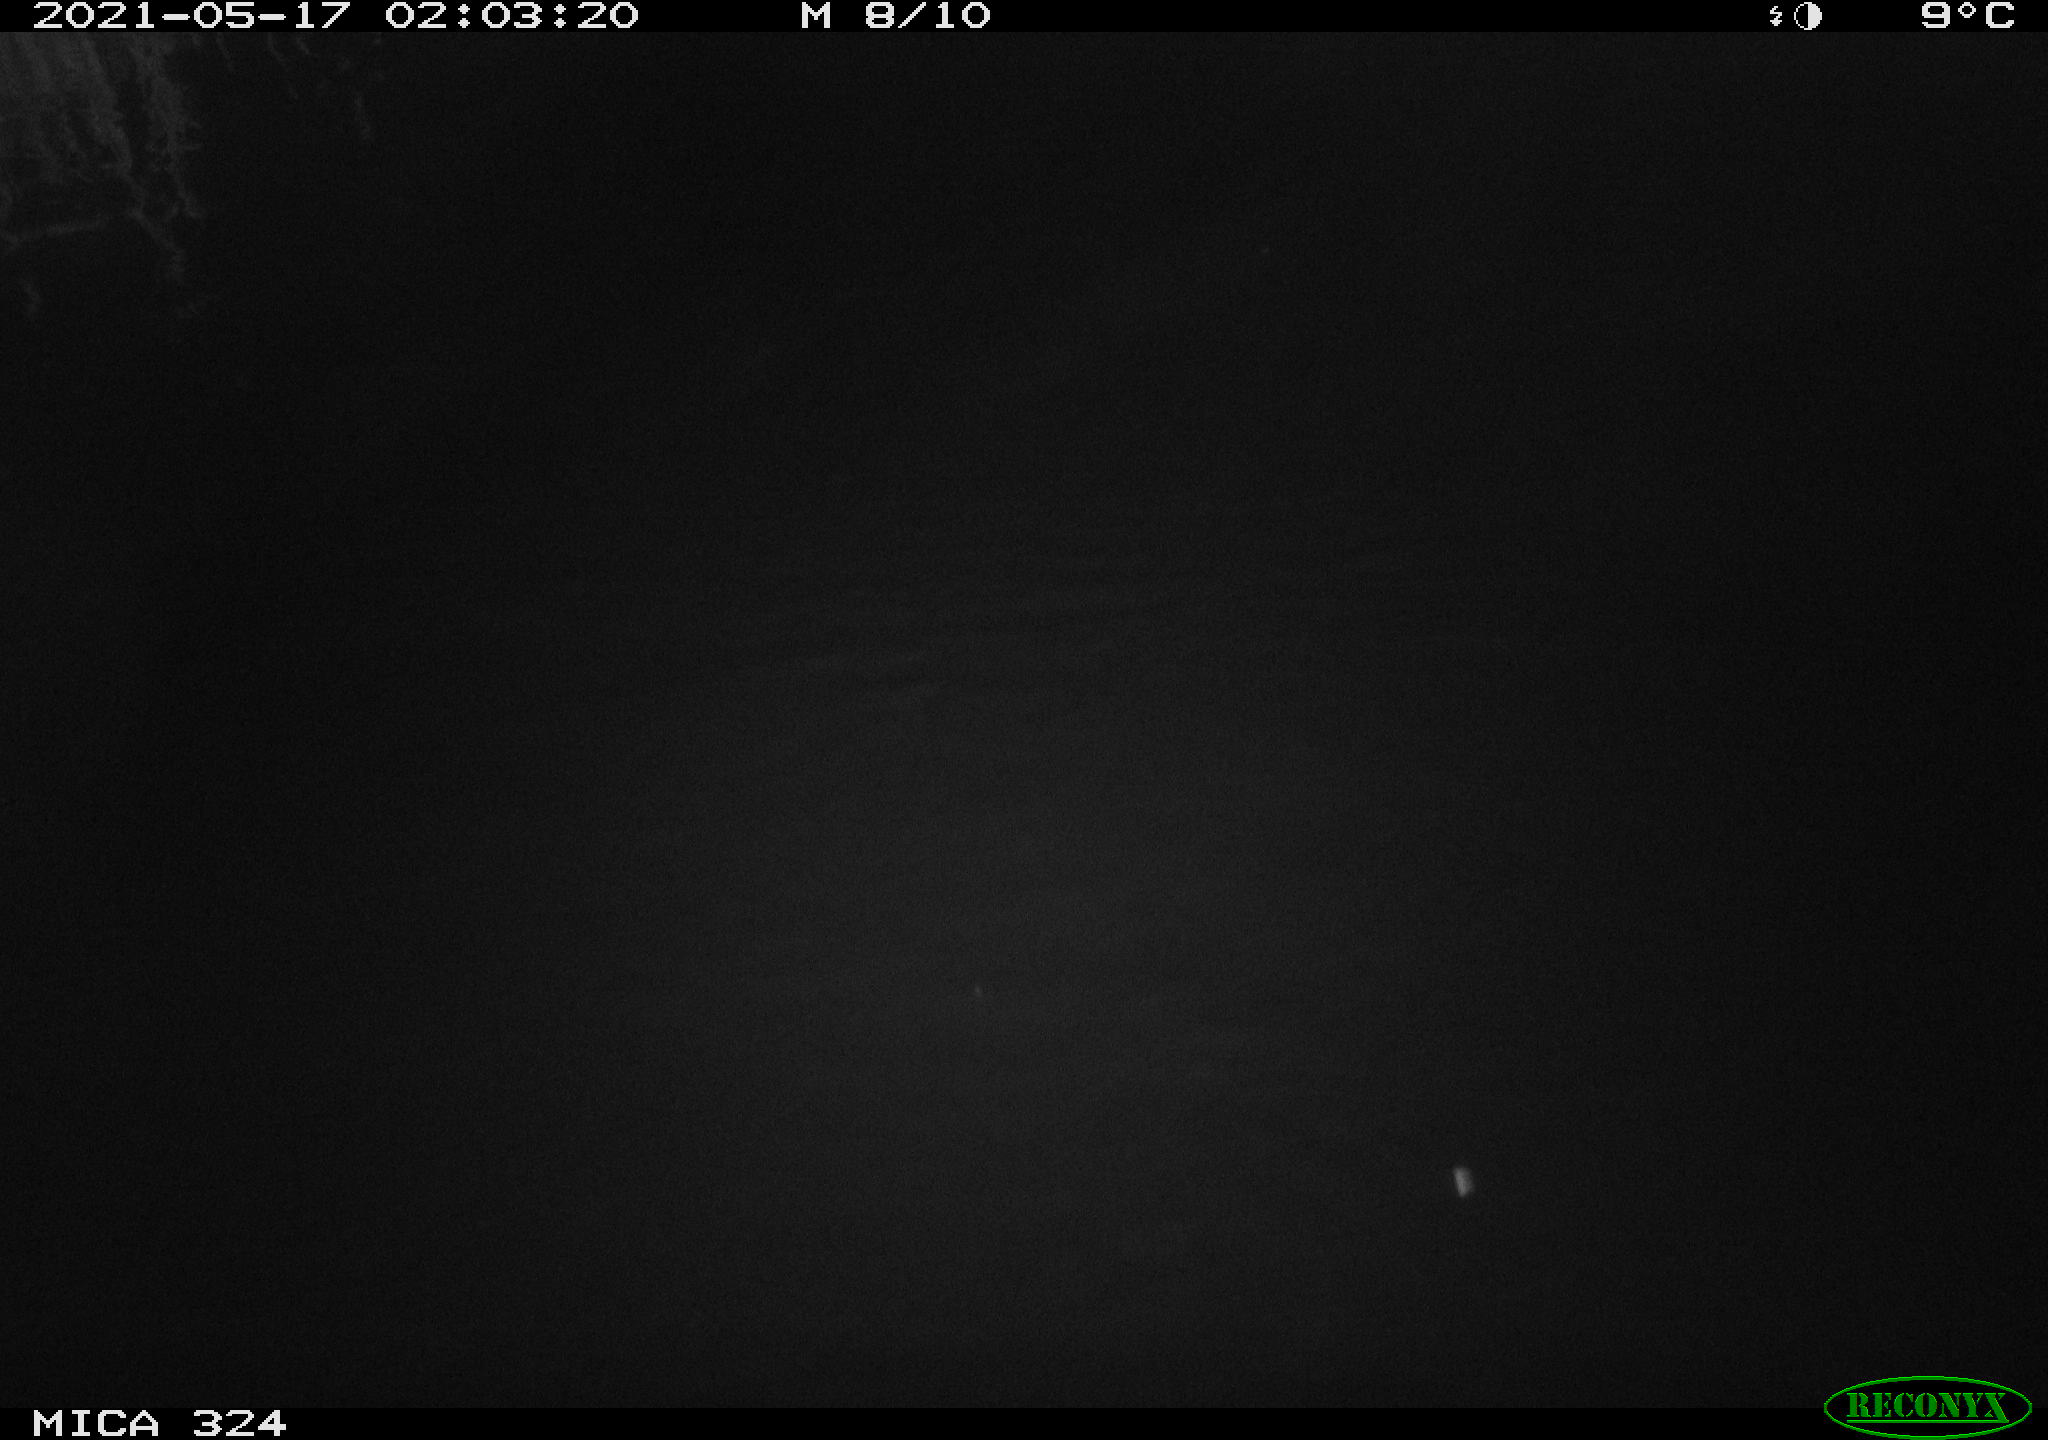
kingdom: Animalia
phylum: Chordata
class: Mammalia
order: Rodentia
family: Cricetidae
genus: Ondatra
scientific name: Ondatra zibethicus
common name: Muskrat
